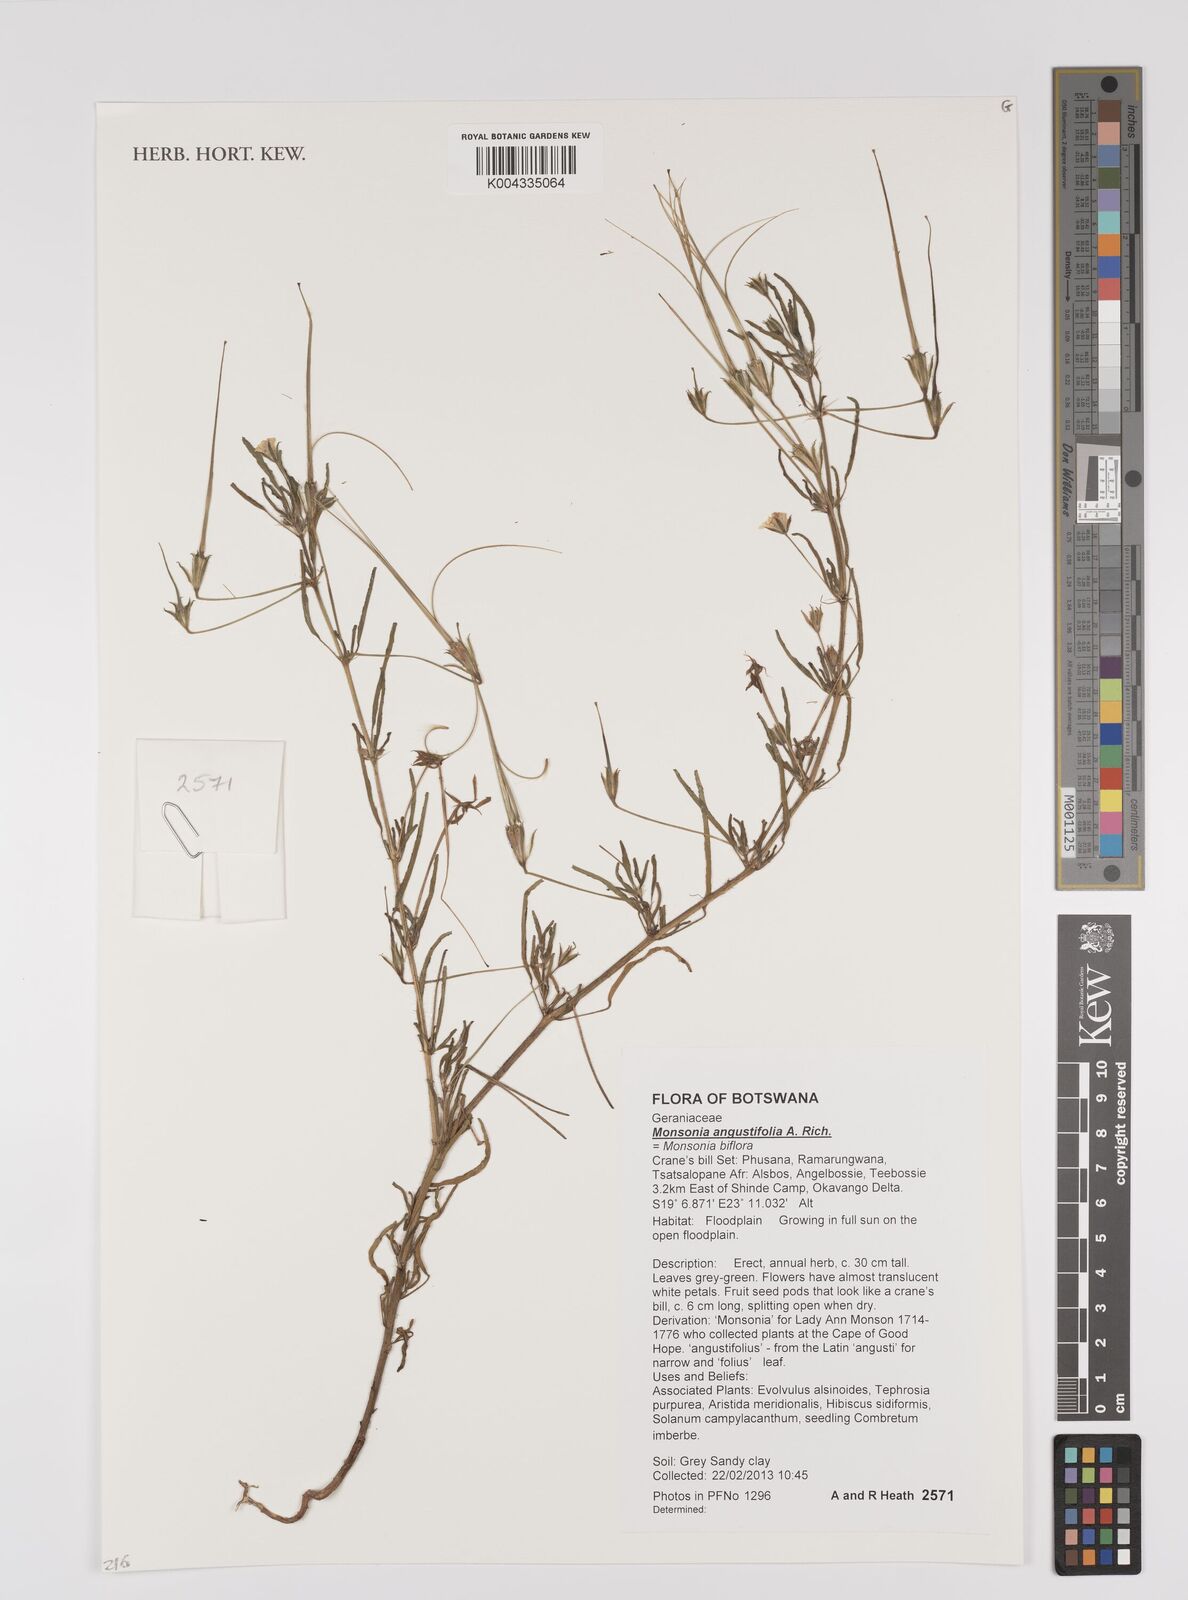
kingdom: Plantae
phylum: Tracheophyta
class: Magnoliopsida
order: Geraniales
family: Geraniaceae
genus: Monsonia
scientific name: Monsonia angustifolia
